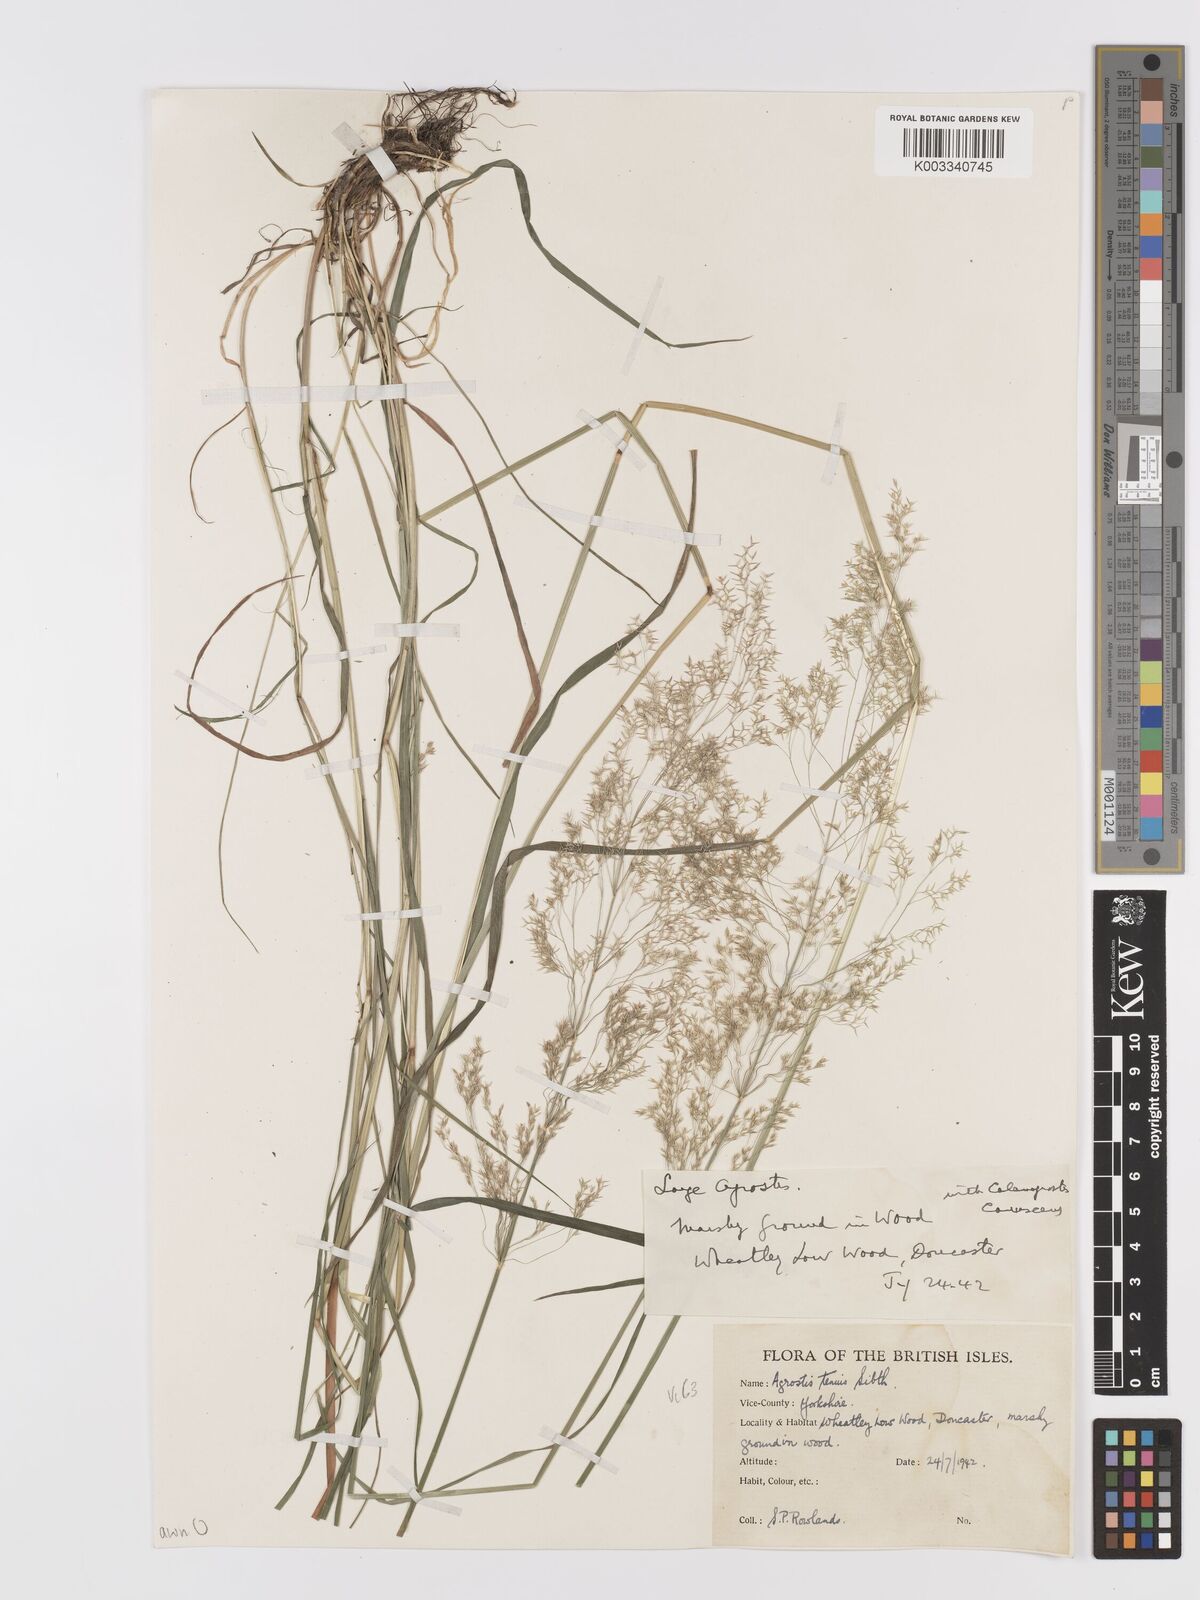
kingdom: Plantae
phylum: Tracheophyta
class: Liliopsida
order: Poales
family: Poaceae
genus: Agrostis
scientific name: Agrostis capillaris
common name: Colonial bentgrass
